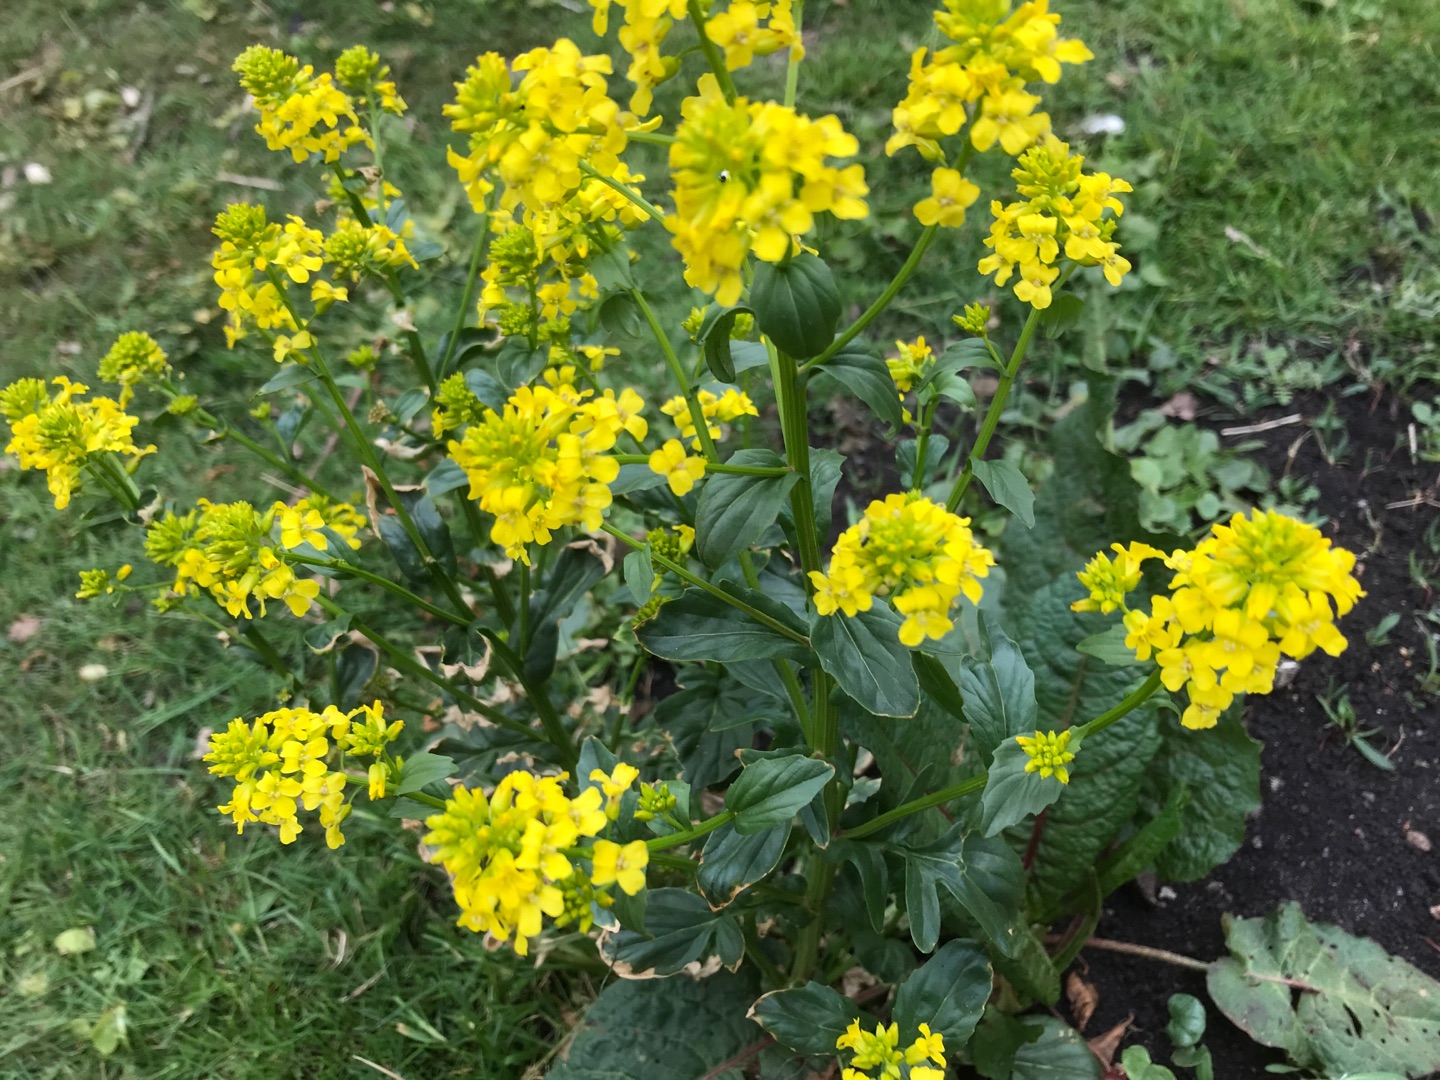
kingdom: Plantae
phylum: Tracheophyta
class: Magnoliopsida
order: Brassicales
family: Brassicaceae
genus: Barbarea
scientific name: Barbarea vulgaris
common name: Almindelig vinterkarse
